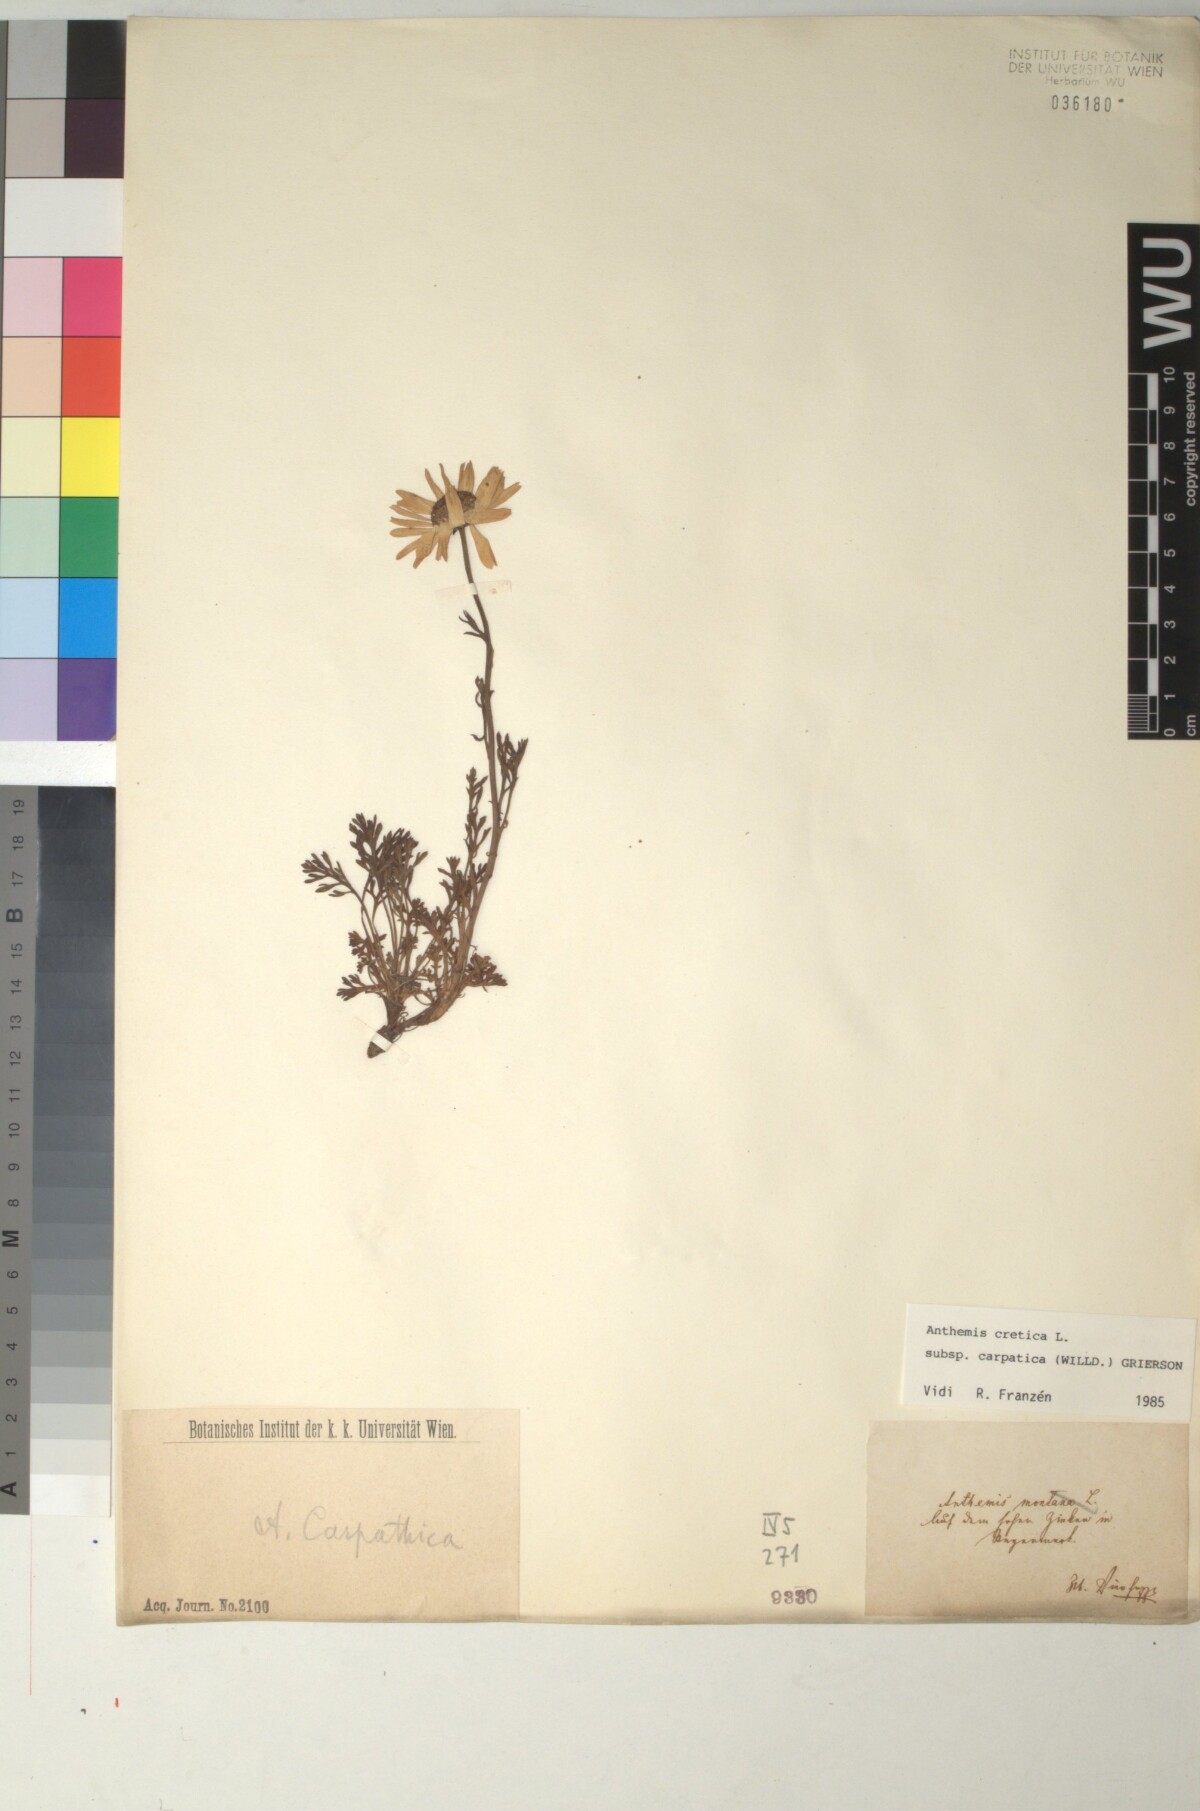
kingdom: Plantae
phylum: Tracheophyta
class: Magnoliopsida
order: Asterales
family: Asteraceae
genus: Anthemis
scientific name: Anthemis cretica
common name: Mountain dog-daisy
